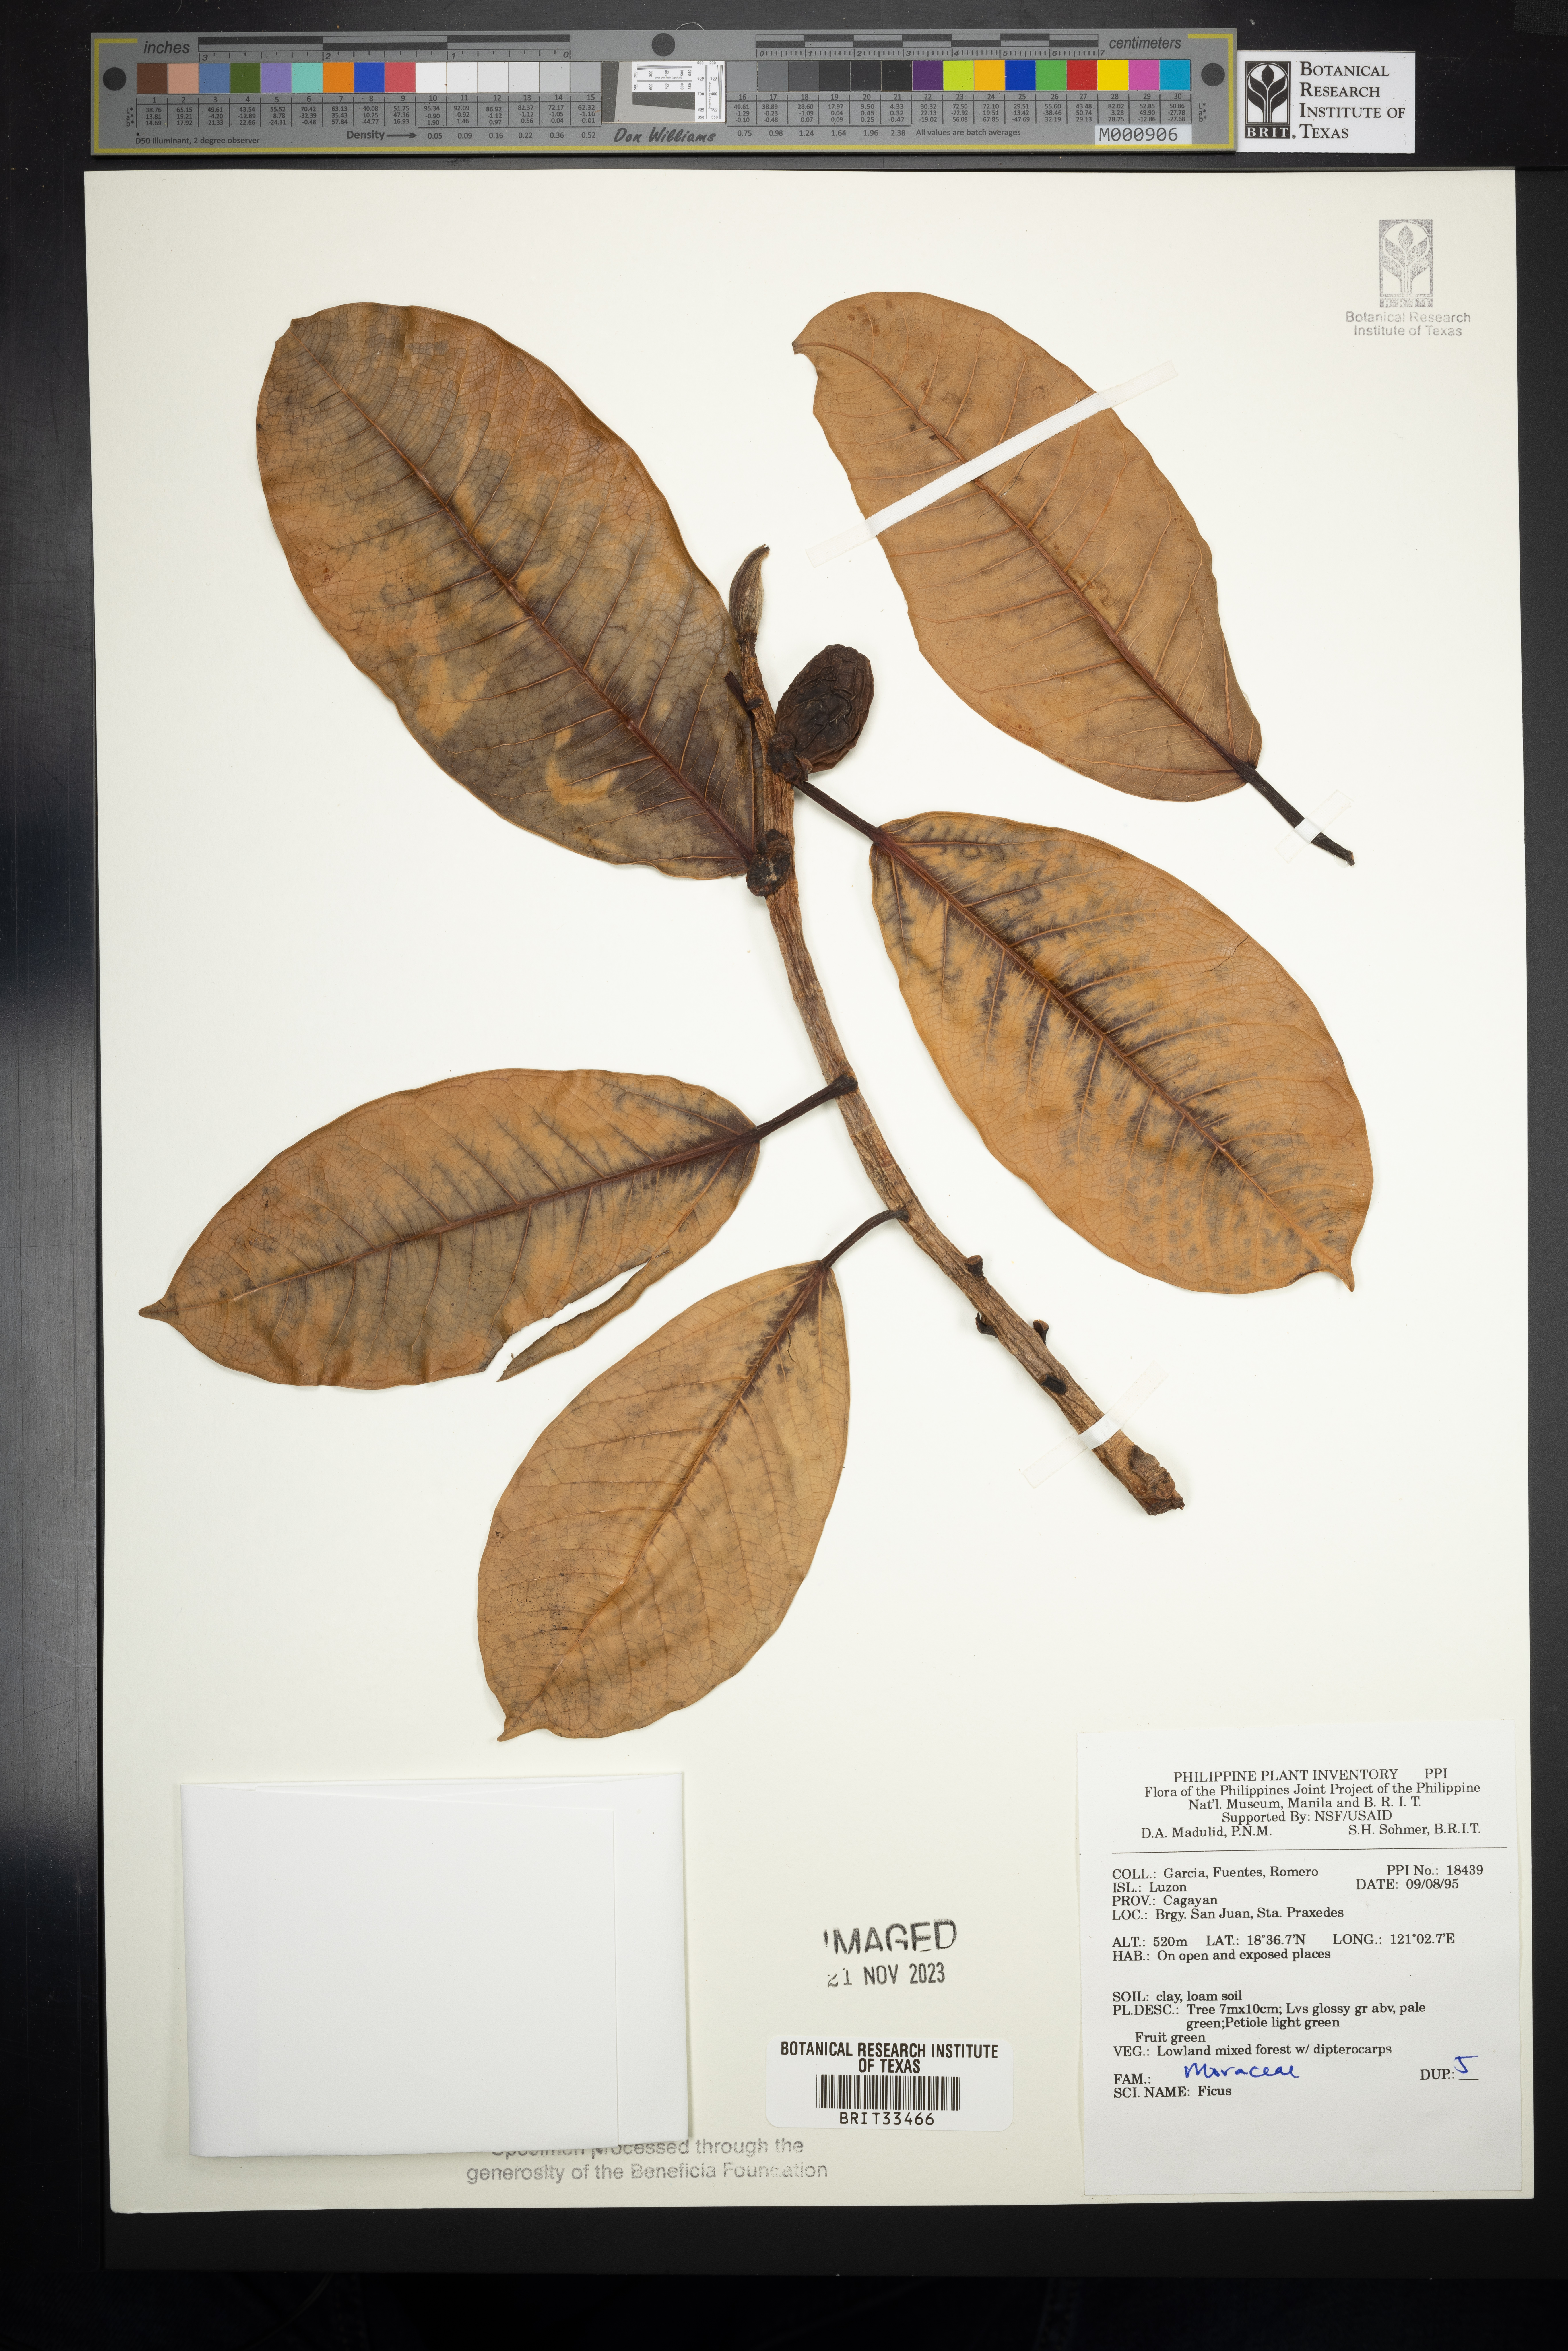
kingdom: Plantae
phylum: Tracheophyta
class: Magnoliopsida
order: Rosales
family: Moraceae
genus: Ficus
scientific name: Ficus
